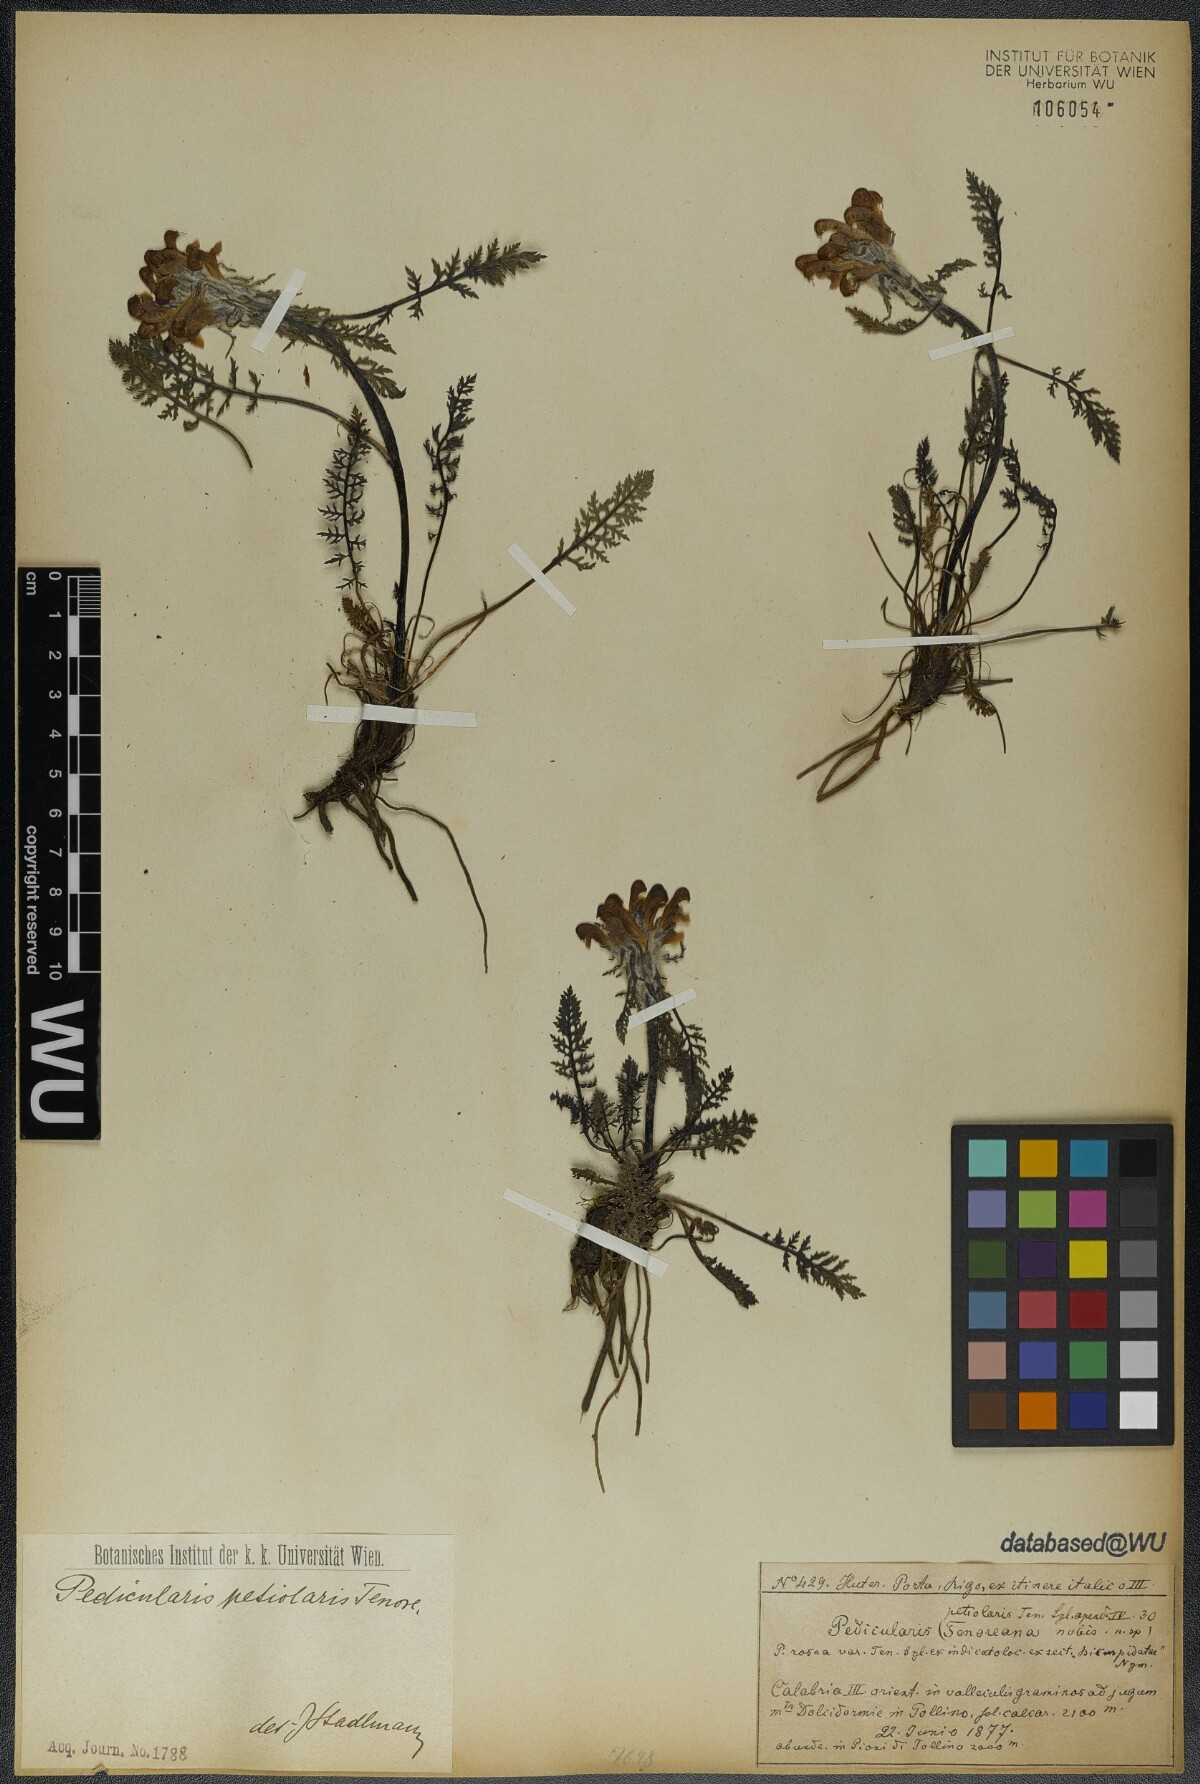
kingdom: Plantae
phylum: Tracheophyta
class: Magnoliopsida
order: Lamiales
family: Orobanchaceae
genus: Pedicularis
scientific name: Pedicularis petiolaris
